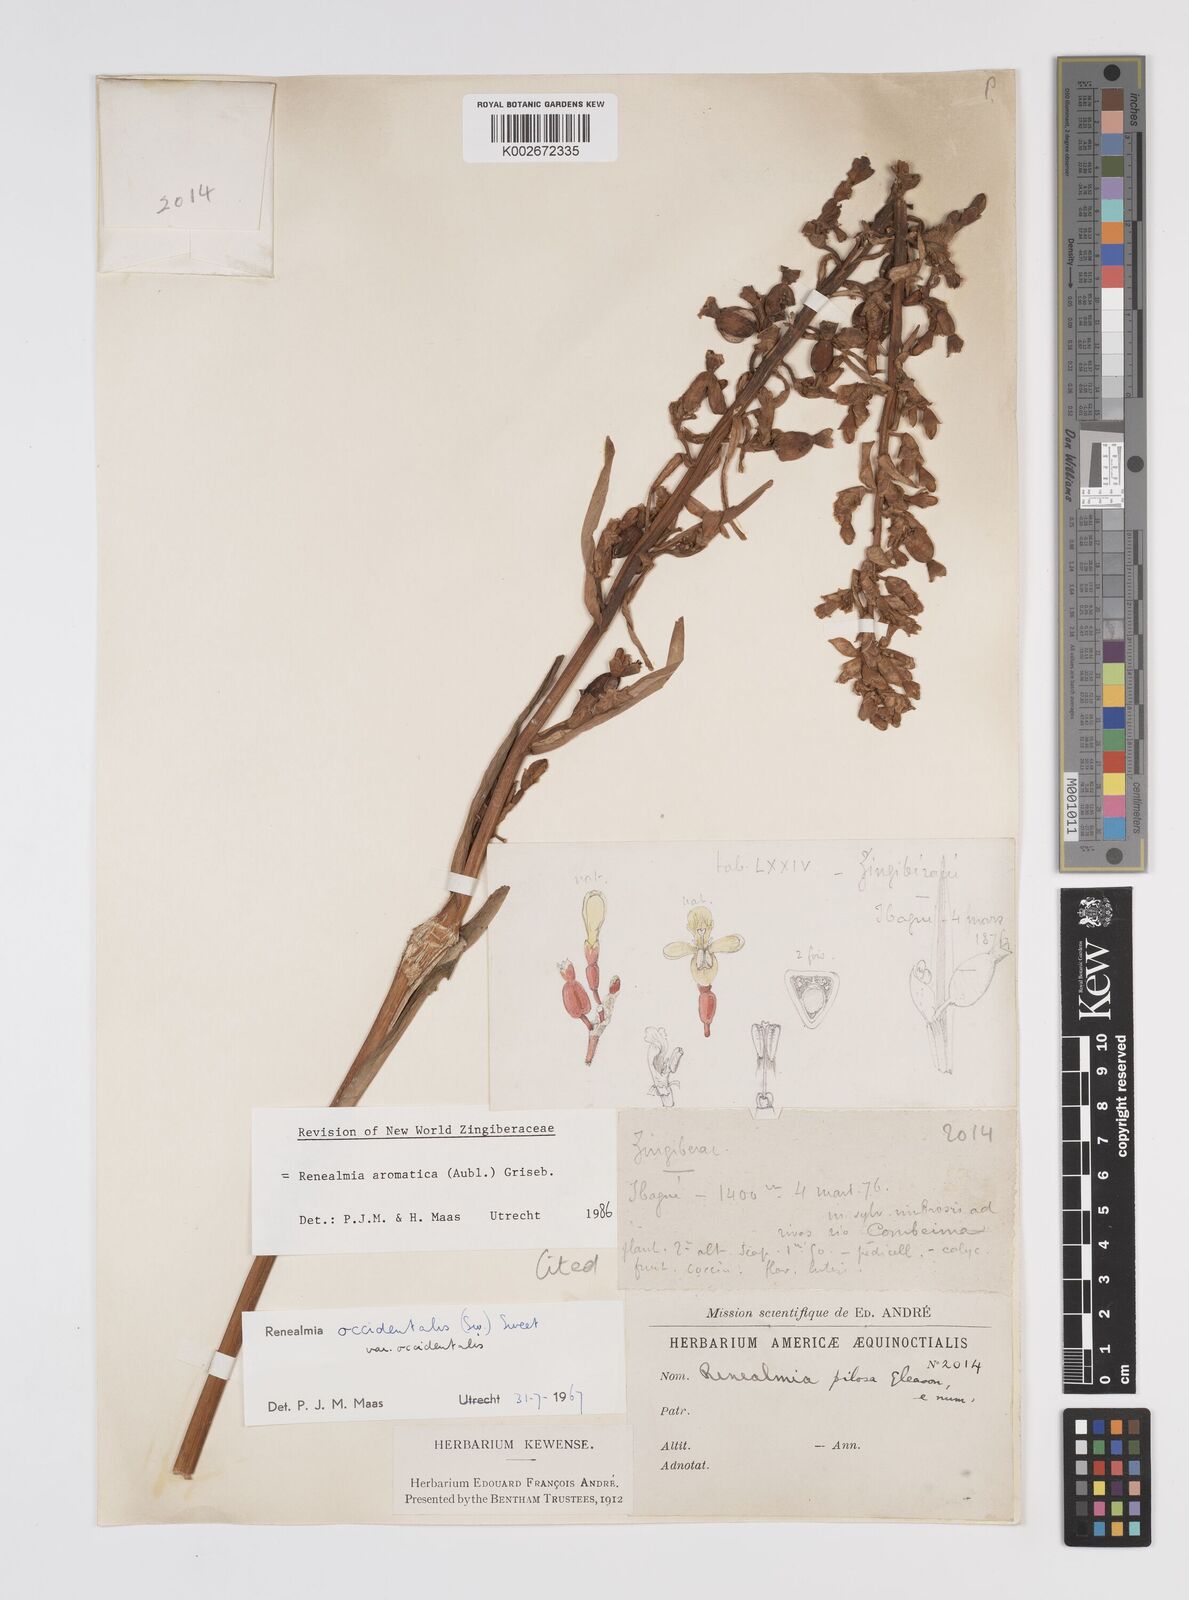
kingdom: Plantae
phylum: Tracheophyta
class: Liliopsida
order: Zingiberales
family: Zingiberaceae
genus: Renealmia
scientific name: Renealmia aromatica
